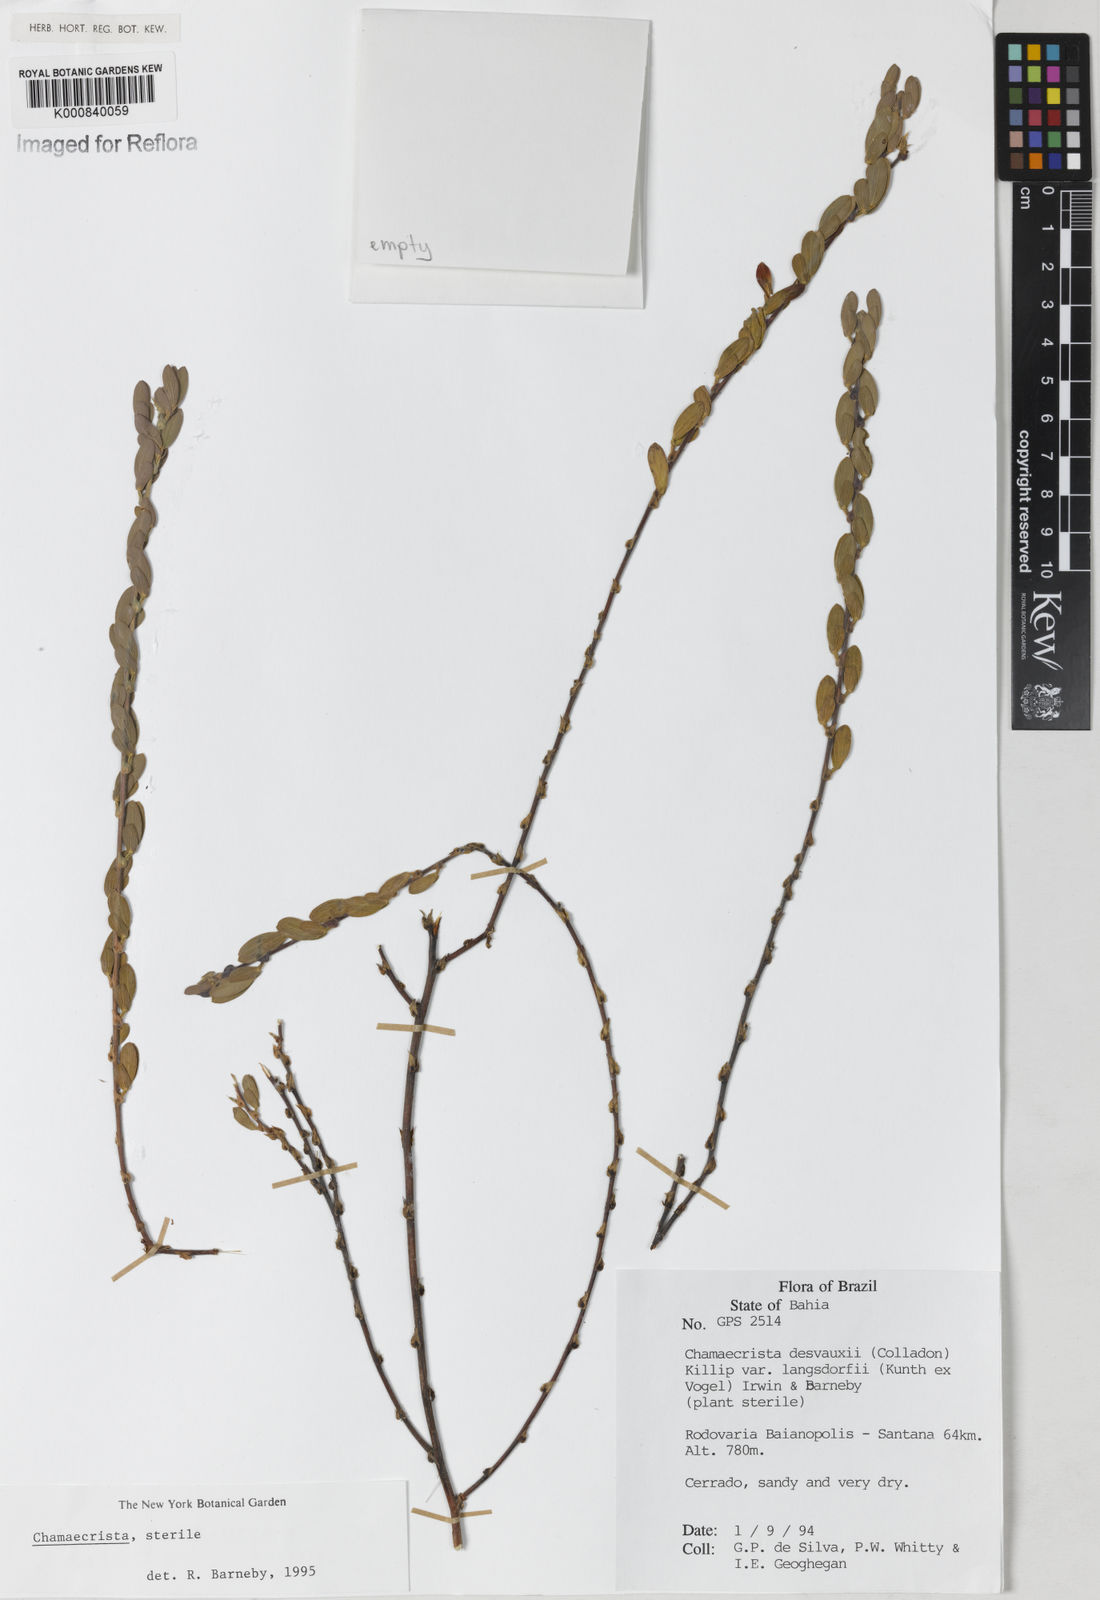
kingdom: Plantae
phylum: Tracheophyta
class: Magnoliopsida
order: Fabales
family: Fabaceae
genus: Chamaecrista
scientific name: Chamaecrista desvauxii
